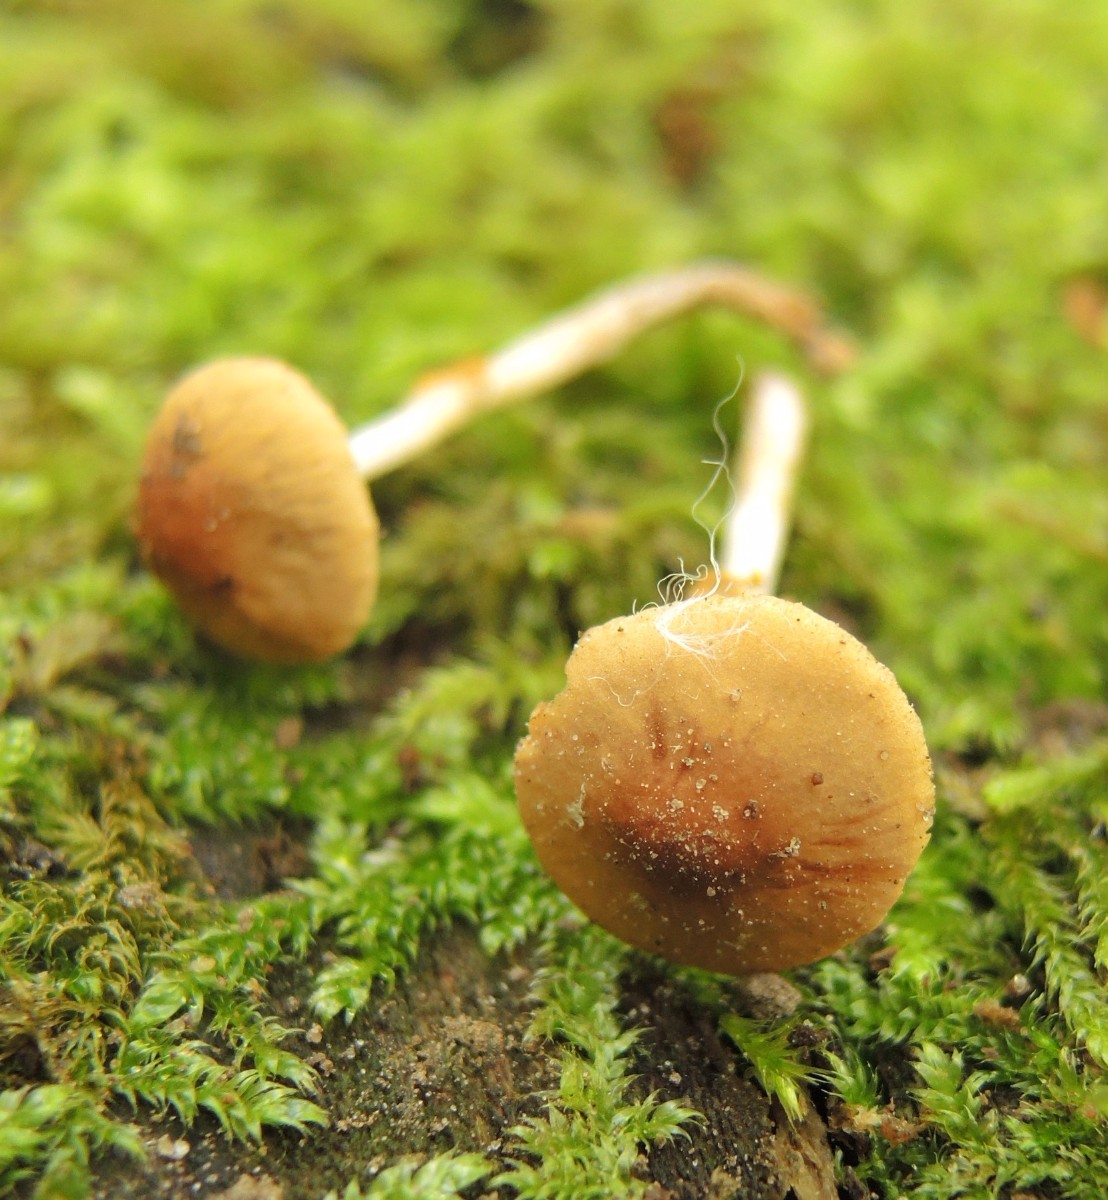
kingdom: Fungi
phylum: Basidiomycota
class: Agaricomycetes
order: Agaricales
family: Bolbitiaceae
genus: Conocybe
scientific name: Conocybe arrhenii
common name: ring-dansehat
